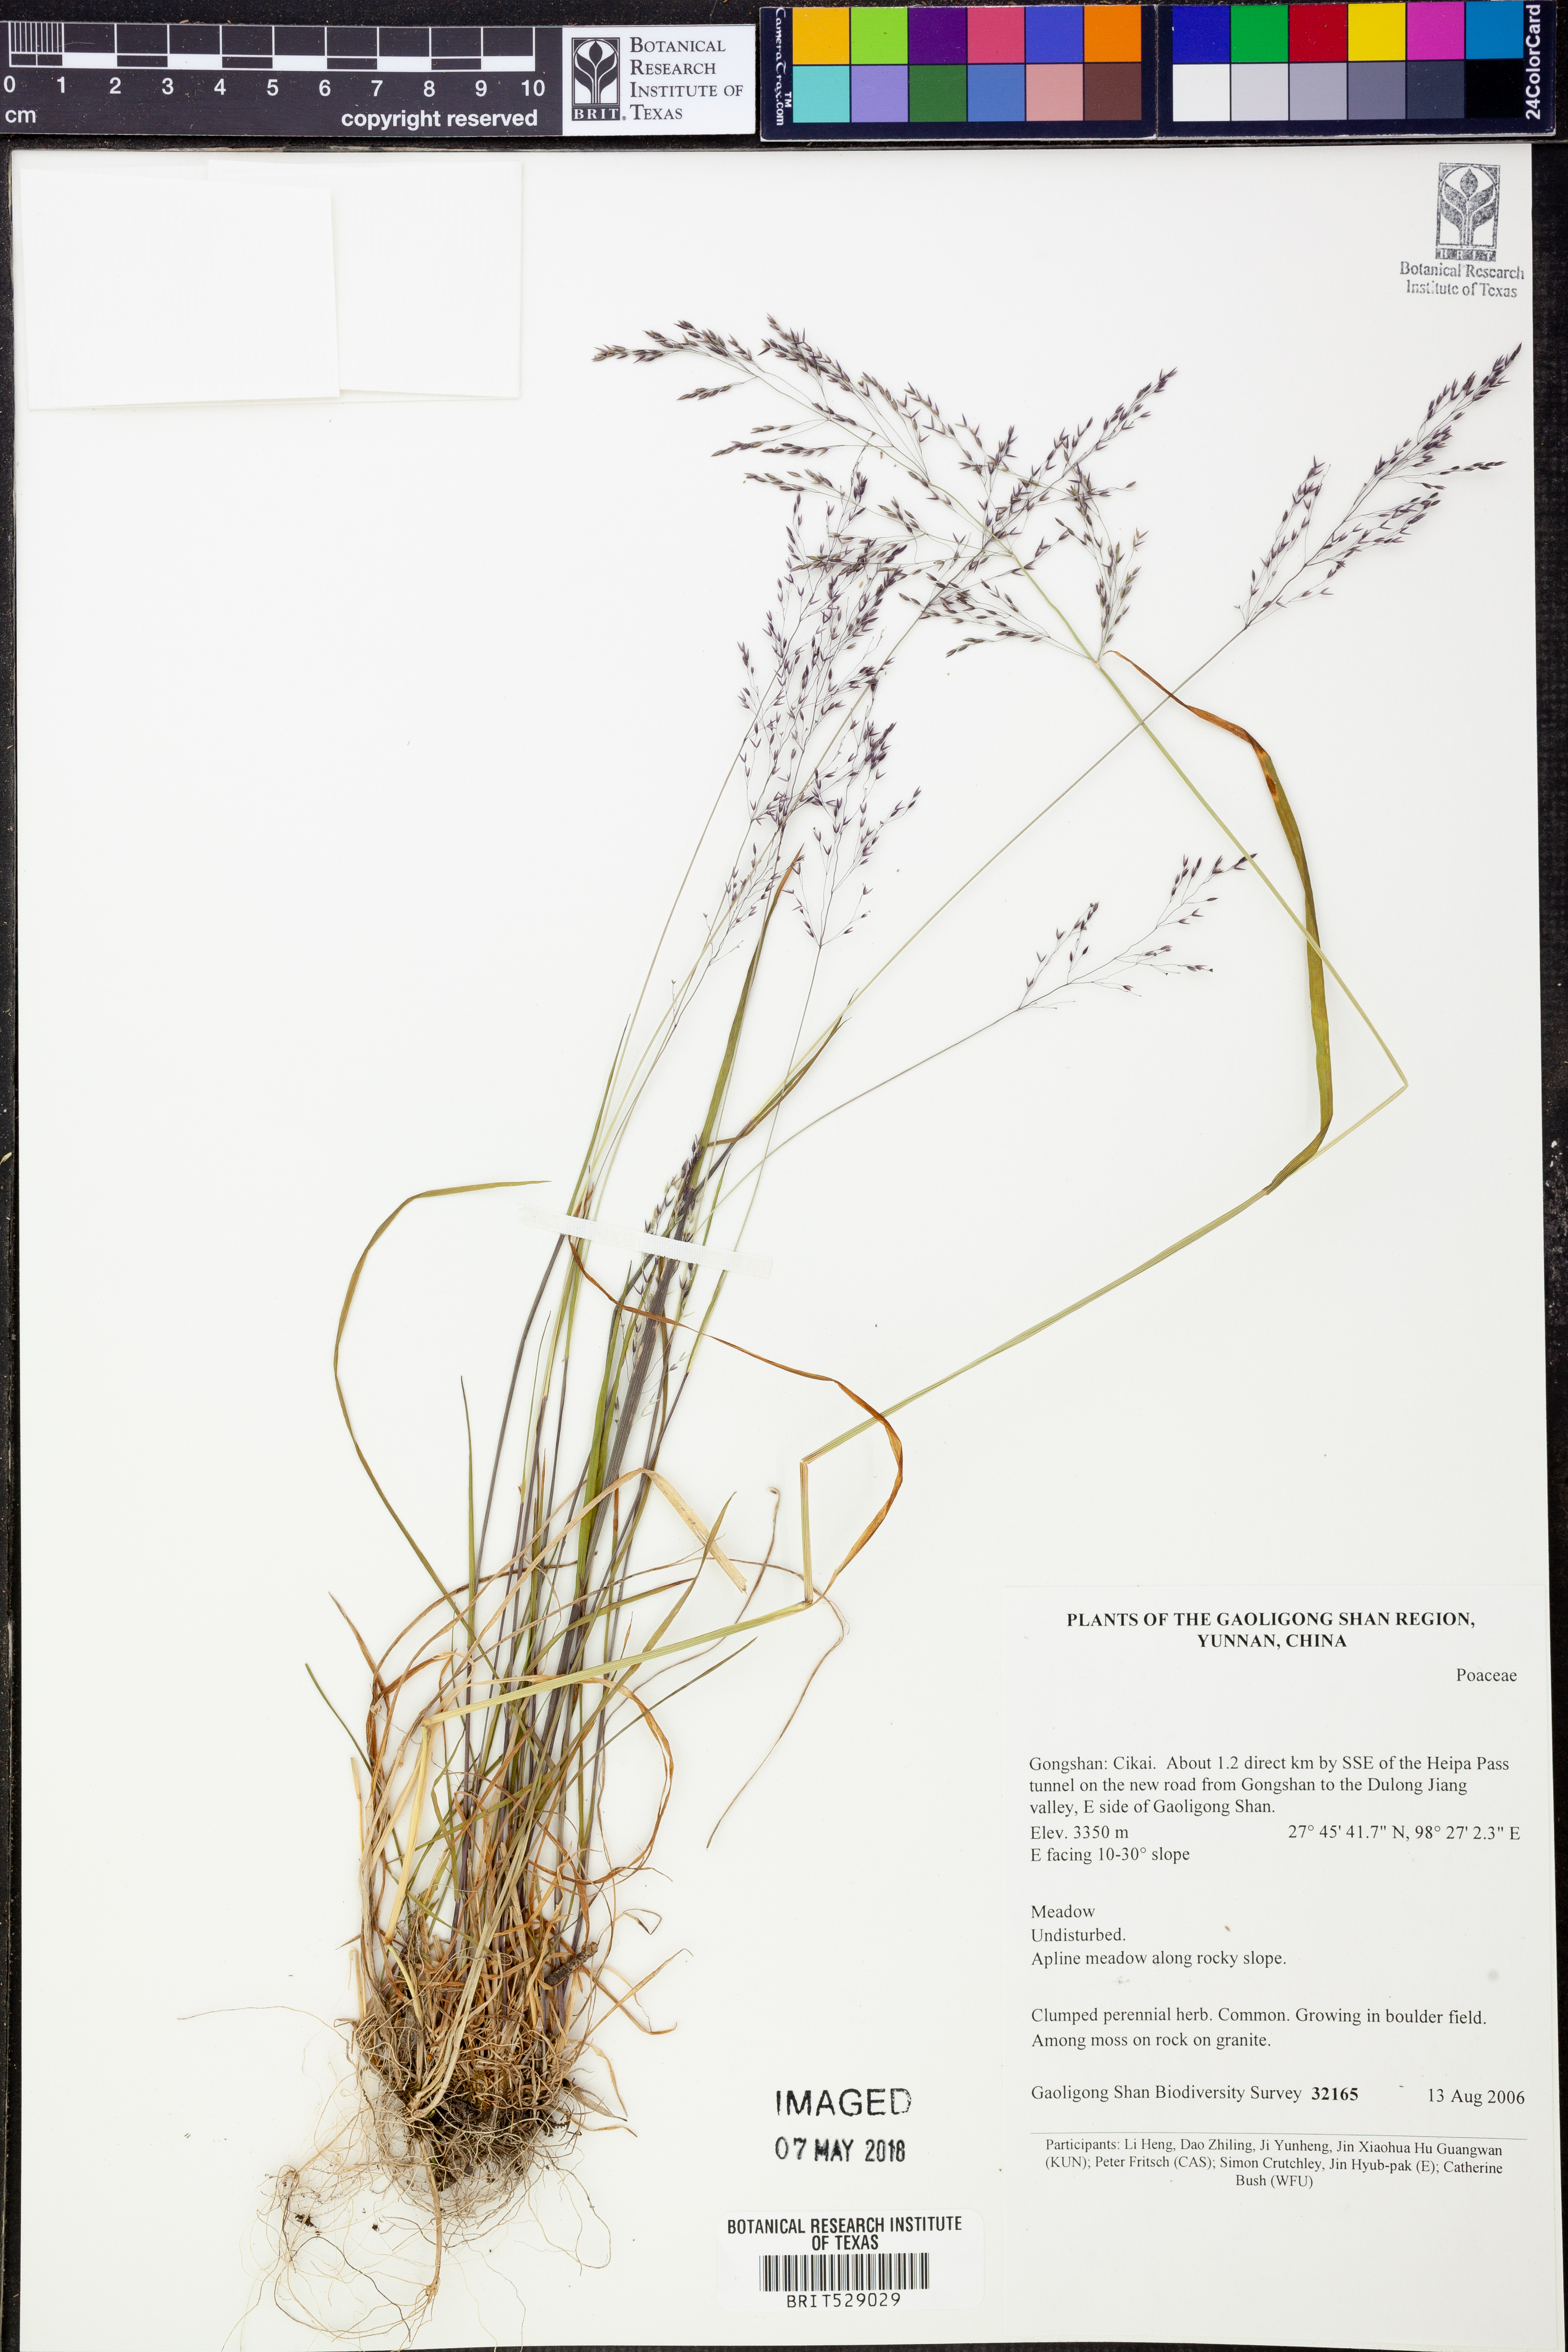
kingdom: Plantae
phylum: Tracheophyta
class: Liliopsida
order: Poales
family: Poaceae
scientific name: Poaceae
